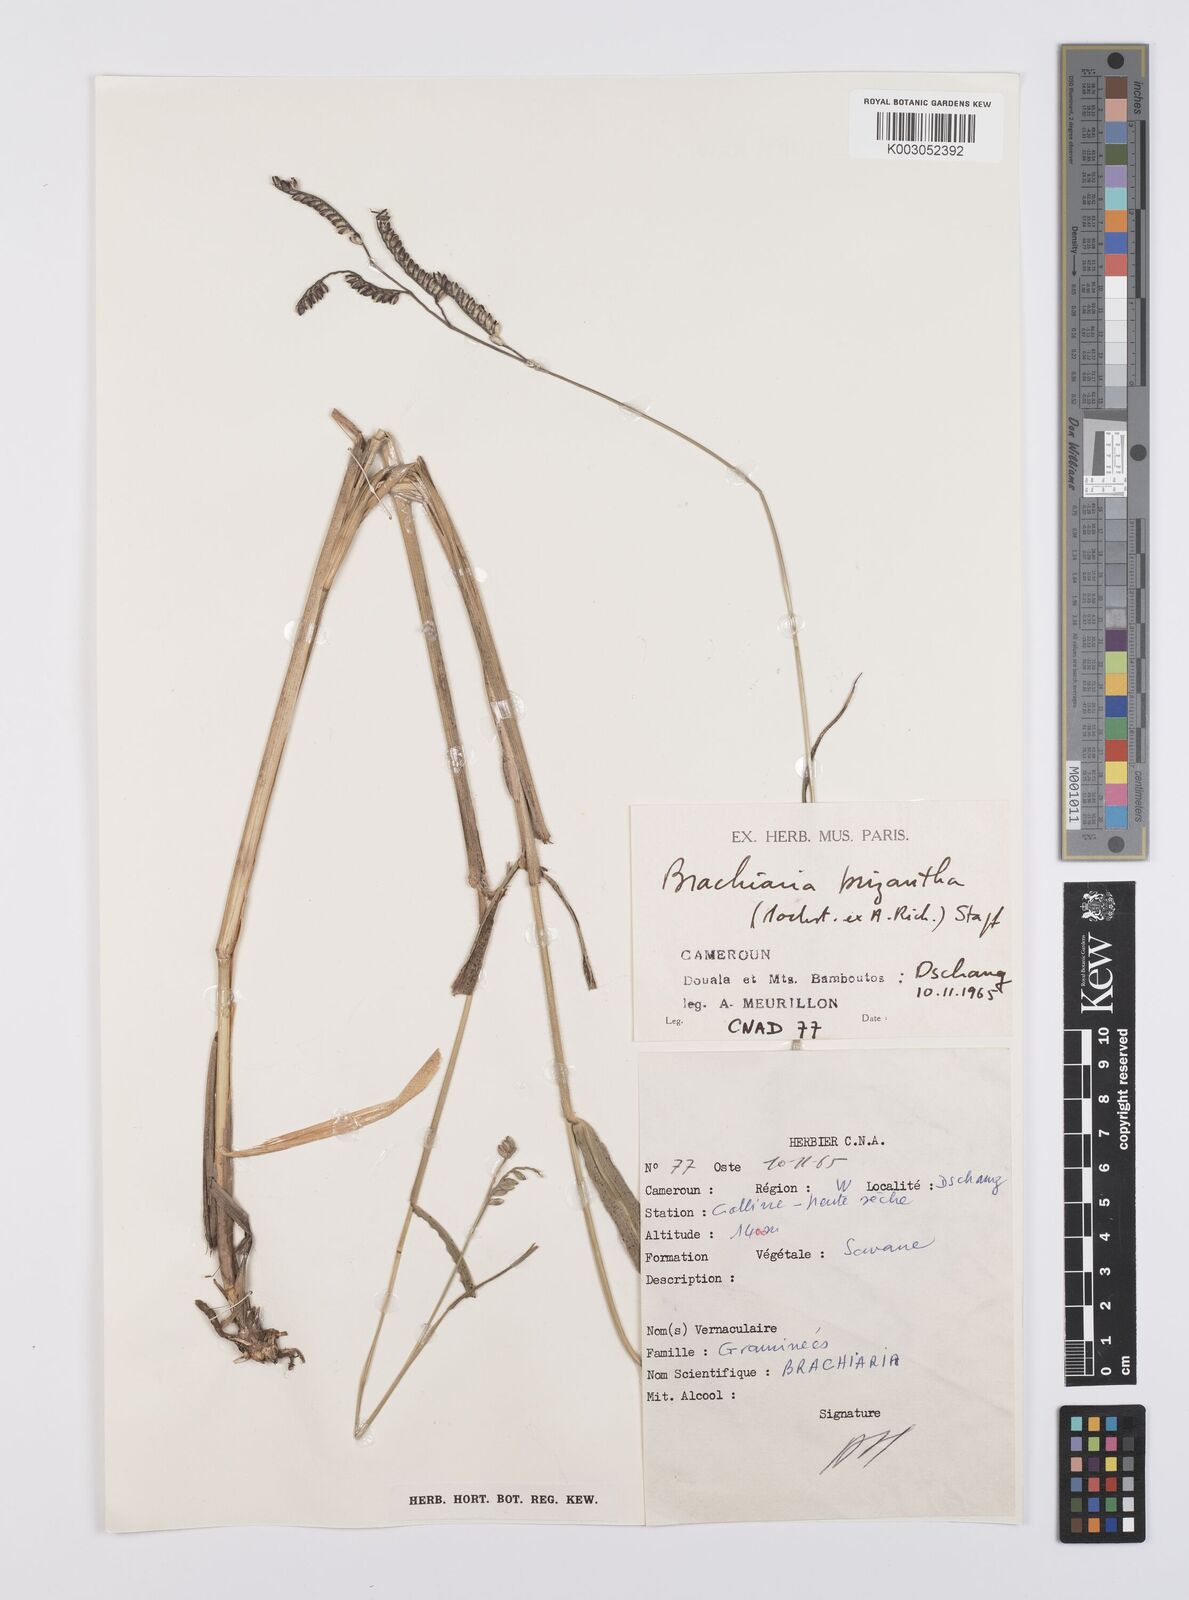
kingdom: Plantae
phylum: Tracheophyta
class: Liliopsida
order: Poales
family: Poaceae
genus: Urochloa
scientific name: Urochloa brizantha
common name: Palisade signalgrass
